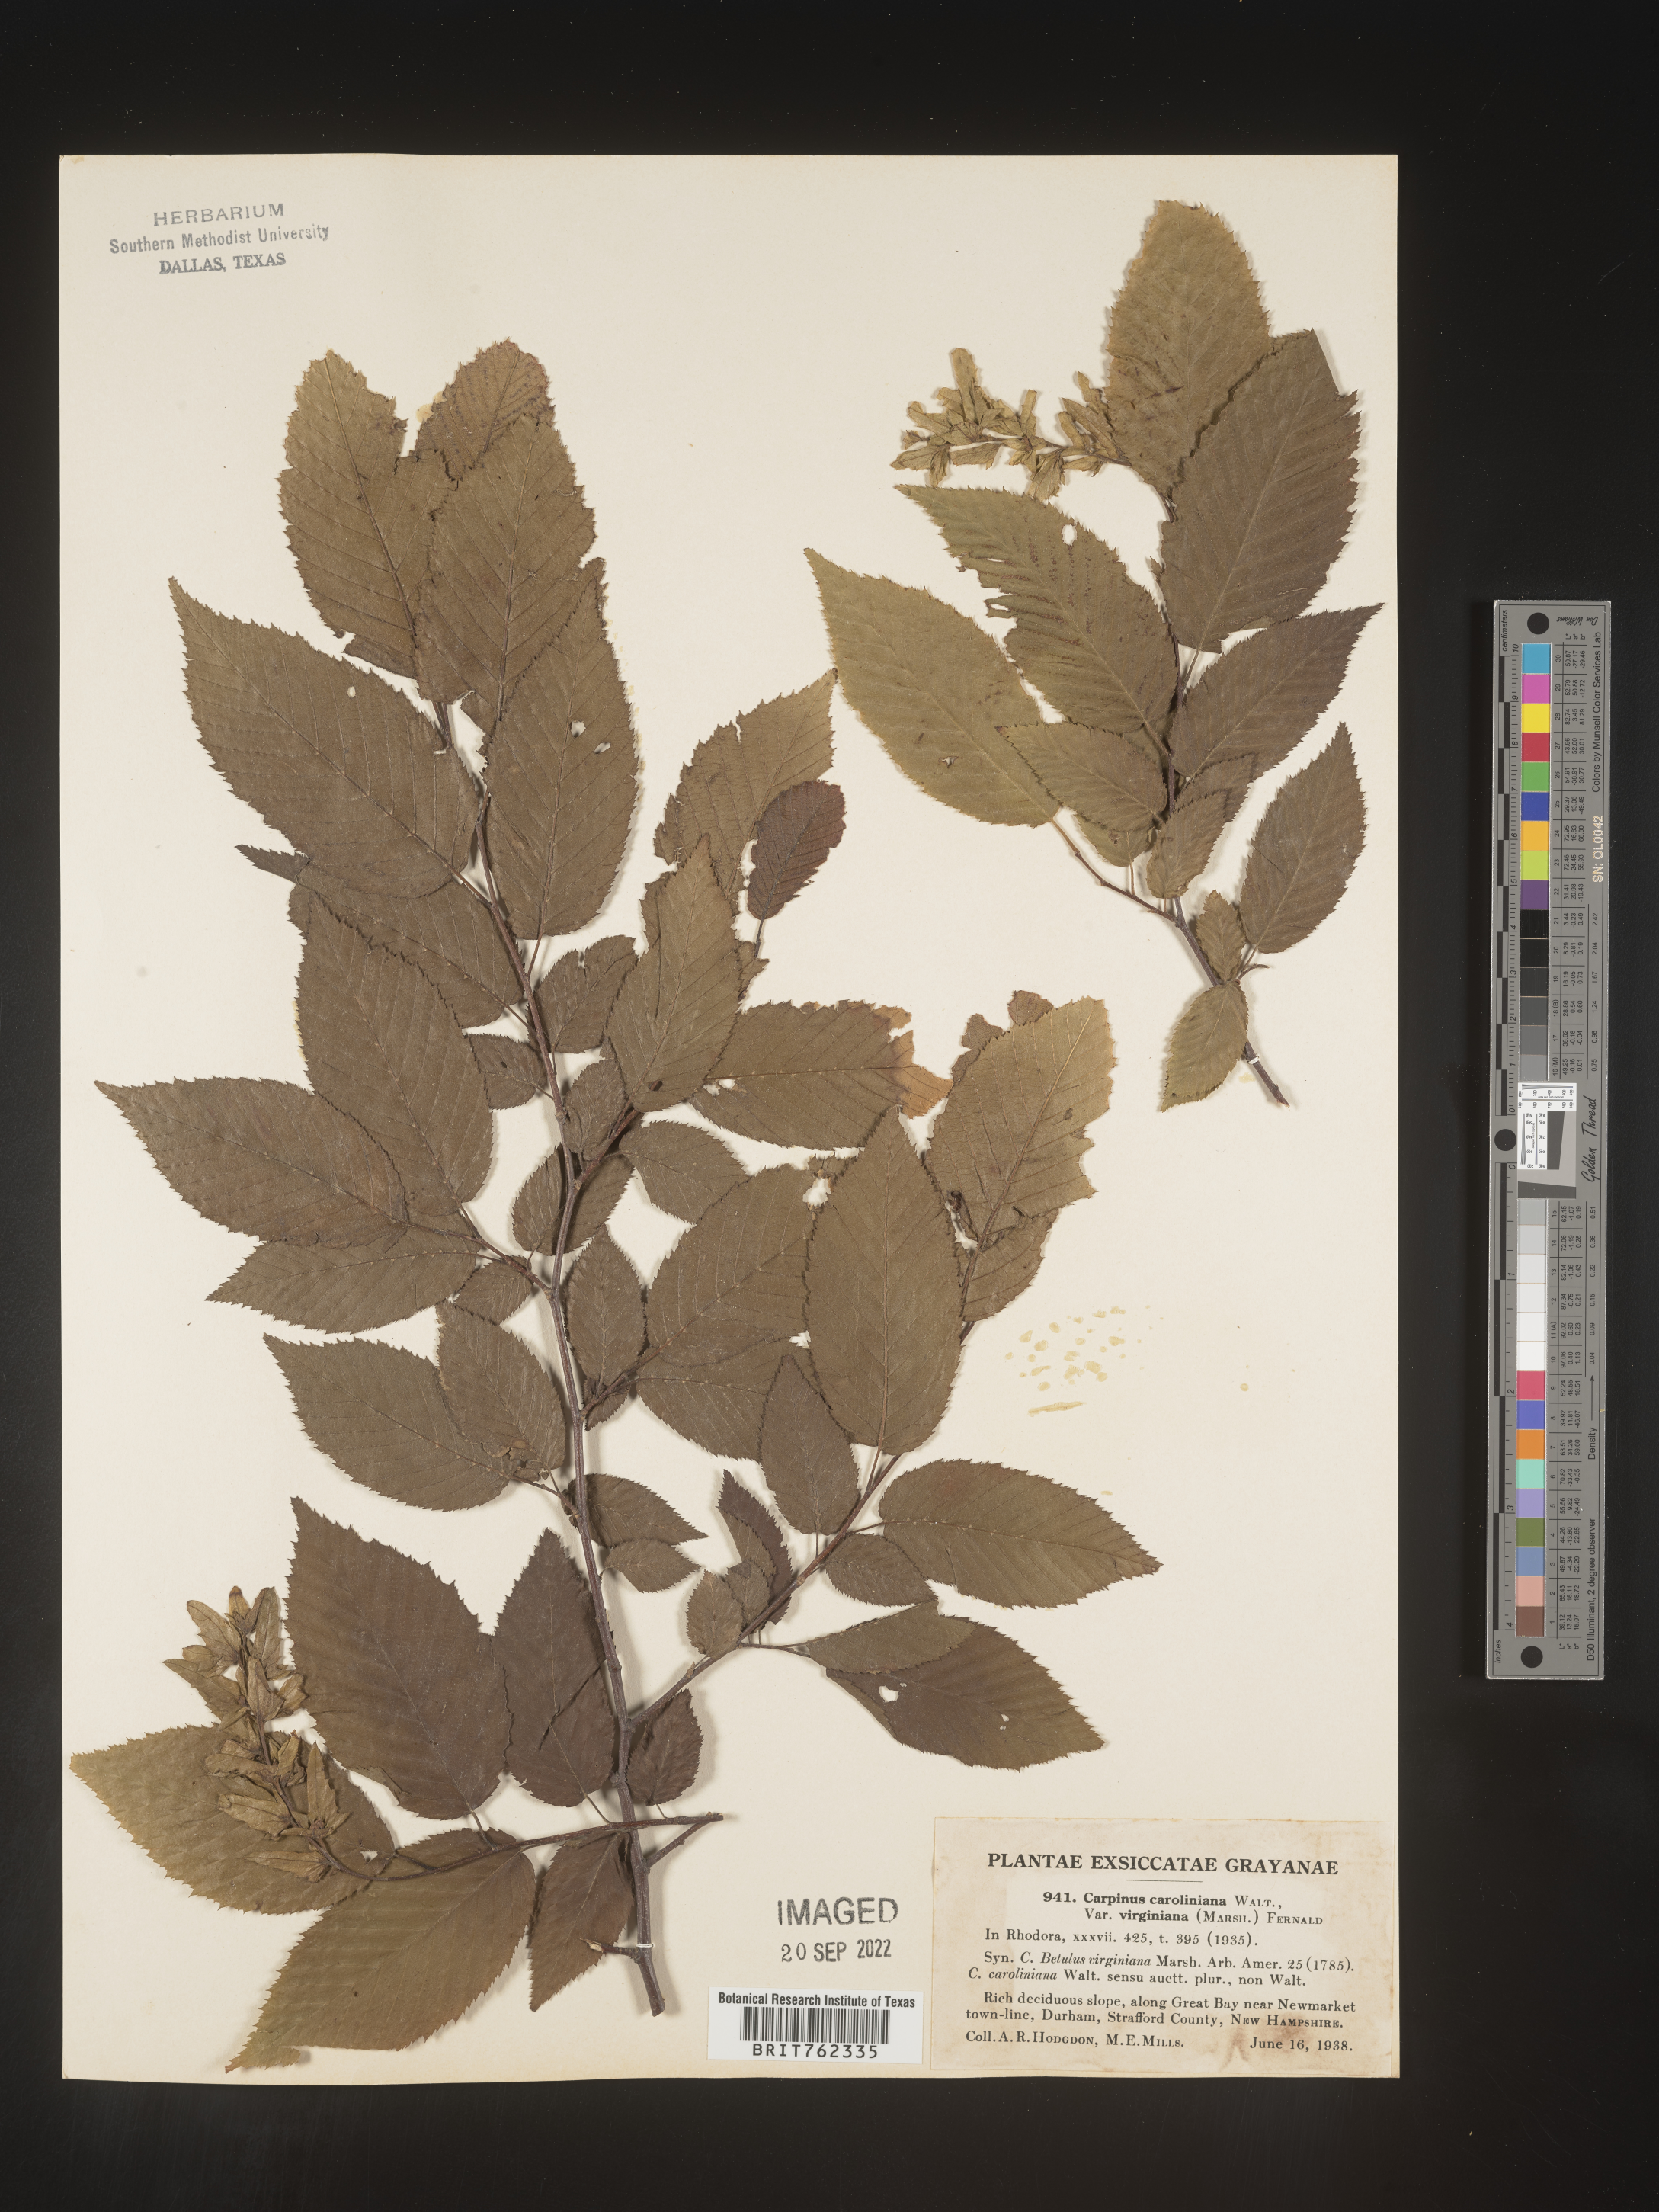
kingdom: Plantae
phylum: Tracheophyta
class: Magnoliopsida
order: Fagales
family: Betulaceae
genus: Carpinus
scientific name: Carpinus caroliniana
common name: American hornbeam
